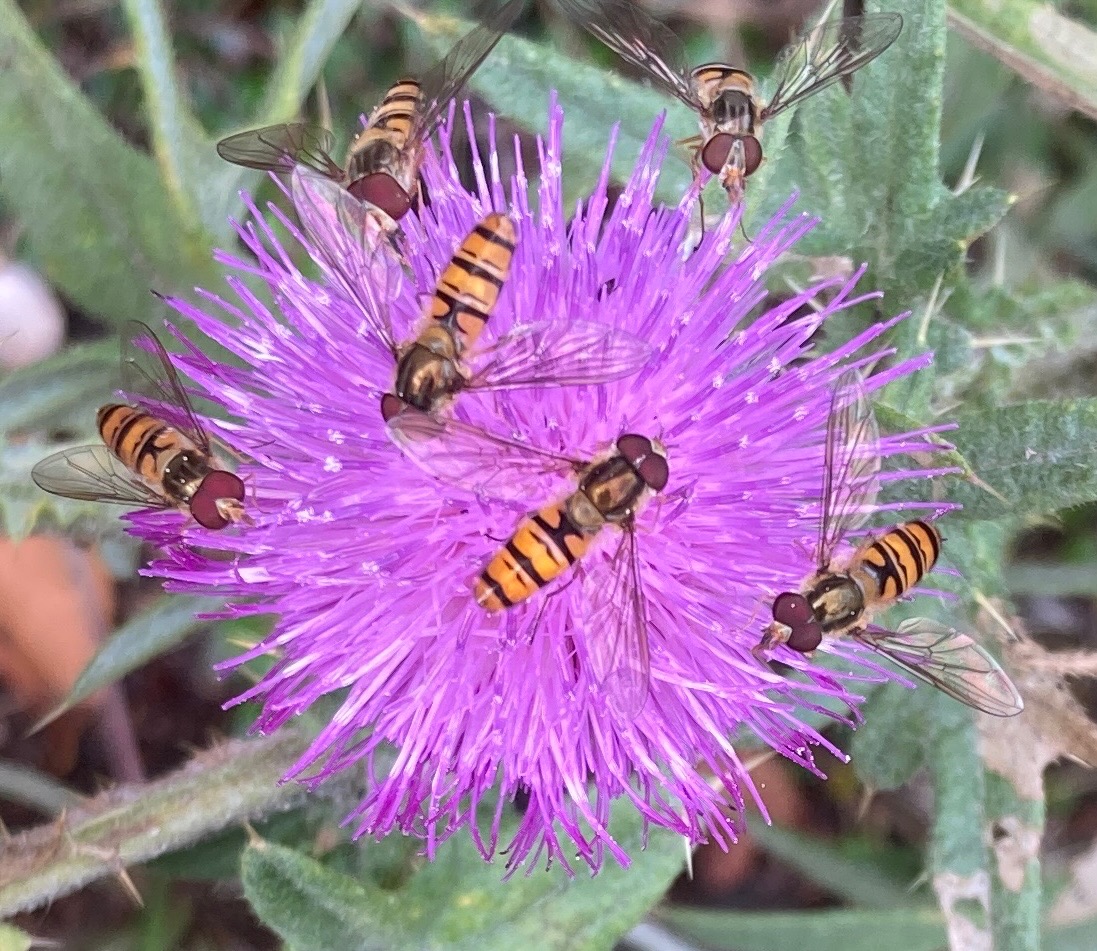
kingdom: Animalia
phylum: Arthropoda
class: Insecta
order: Diptera
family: Syrphidae
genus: Episyrphus
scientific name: Episyrphus balteatus
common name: Dobbeltbåndet svirreflue
